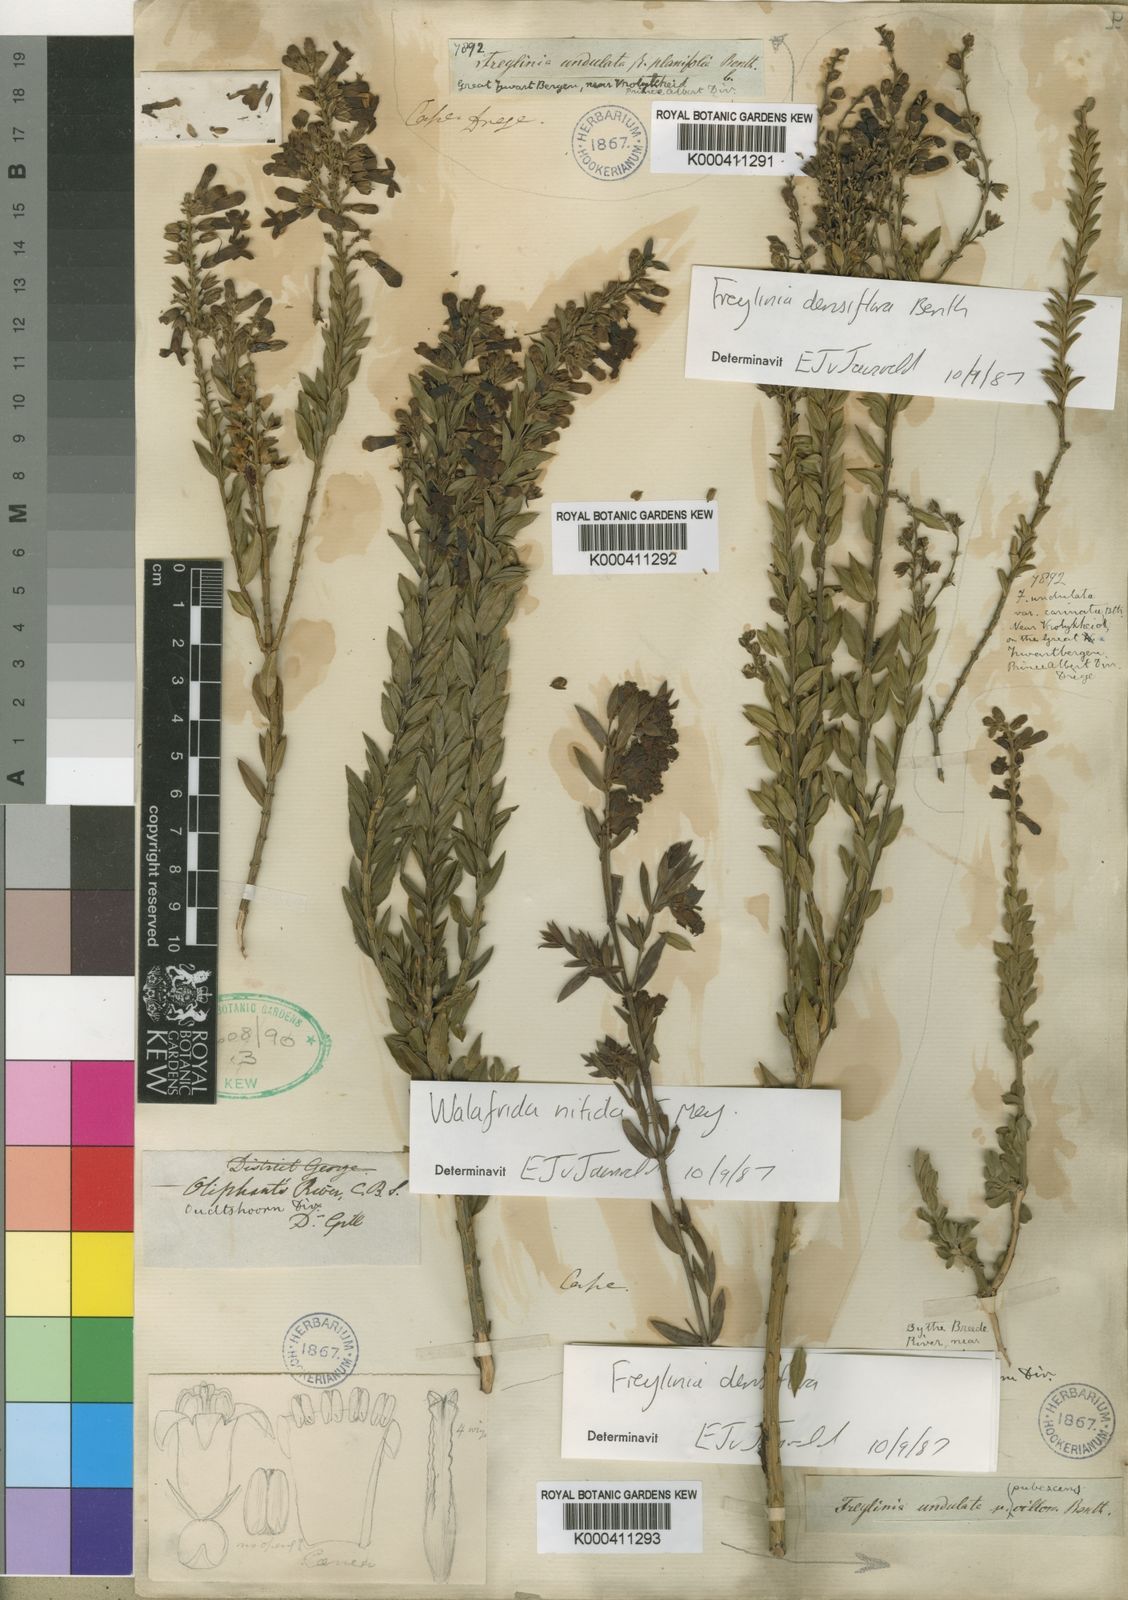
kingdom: Plantae
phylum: Tracheophyta
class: Magnoliopsida
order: Lamiales
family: Scrophulariaceae
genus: Freylinia
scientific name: Freylinia undulata
